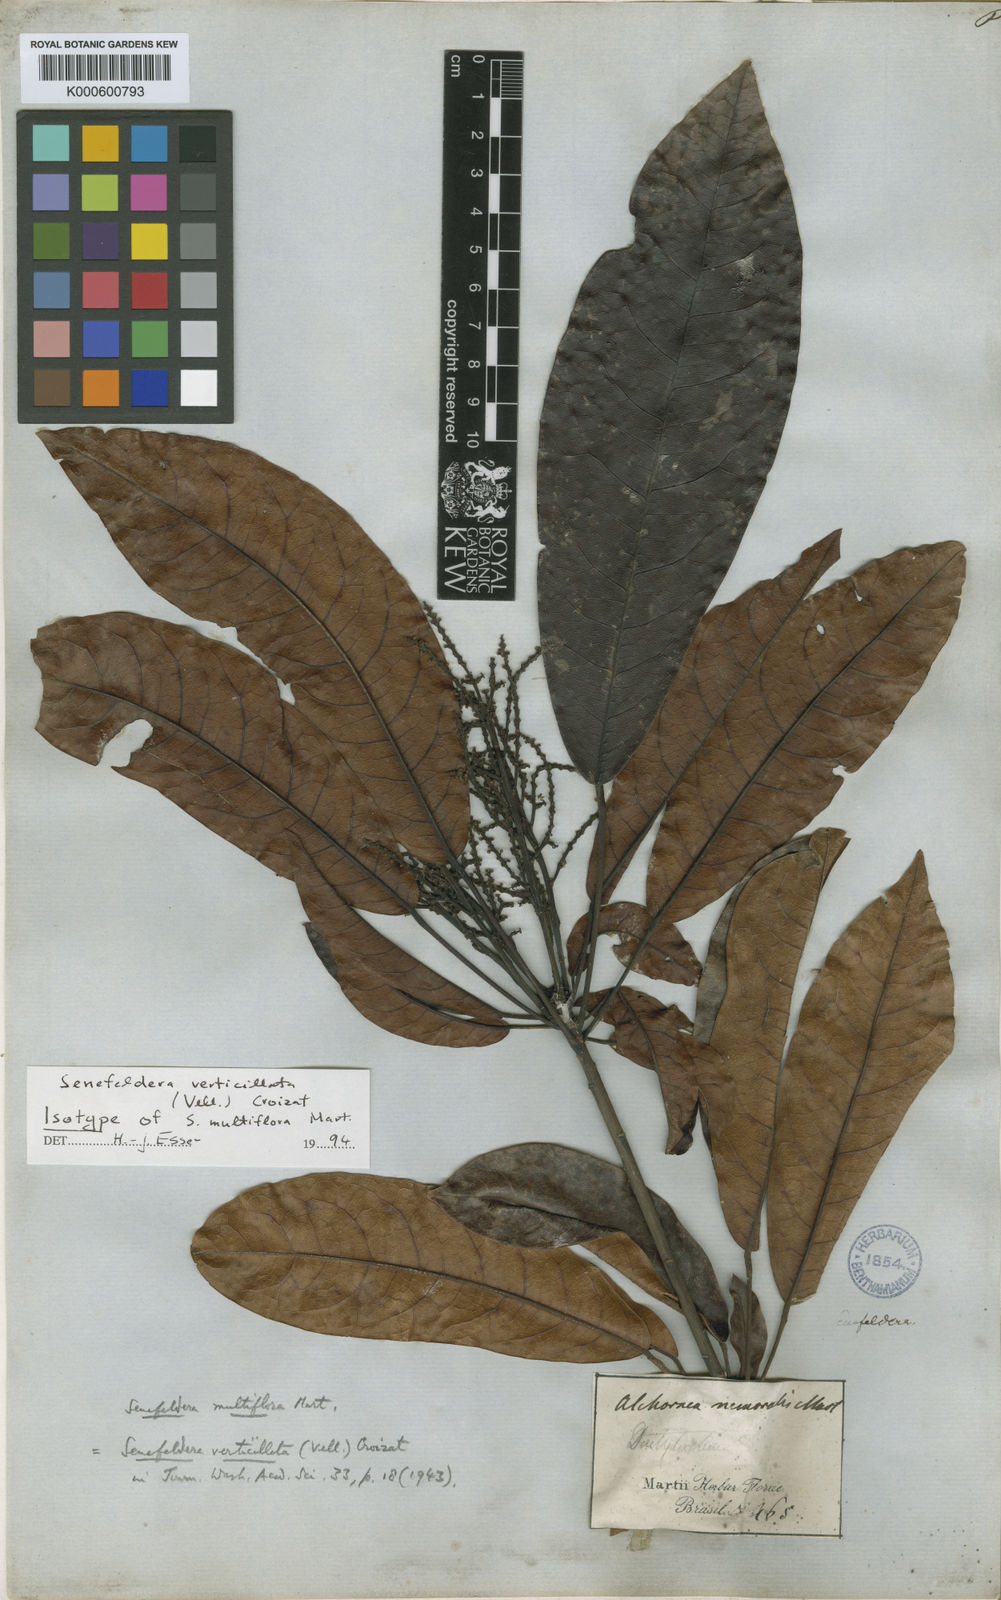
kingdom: Plantae
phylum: Tracheophyta
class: Magnoliopsida
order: Malpighiales
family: Euphorbiaceae
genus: Senefeldera
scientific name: Senefeldera verticillata
